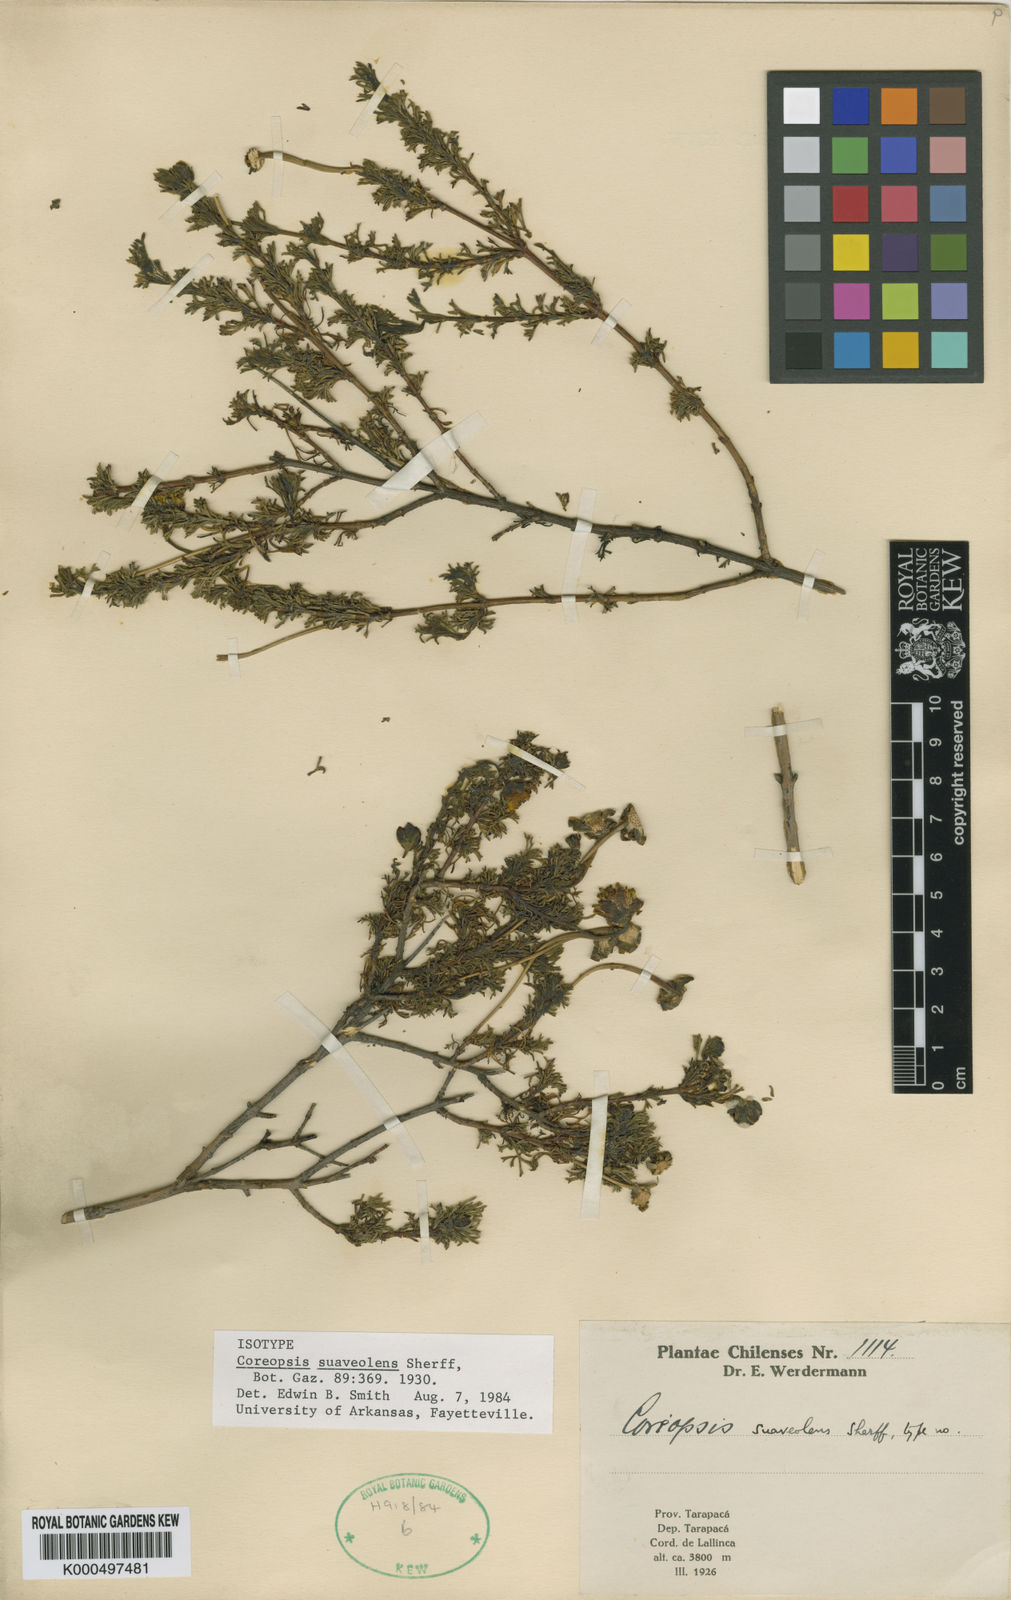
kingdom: Plantae
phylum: Tracheophyta
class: Magnoliopsida
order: Asterales
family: Asteraceae
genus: Coreopsis
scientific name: Coreopsis suaveolens
